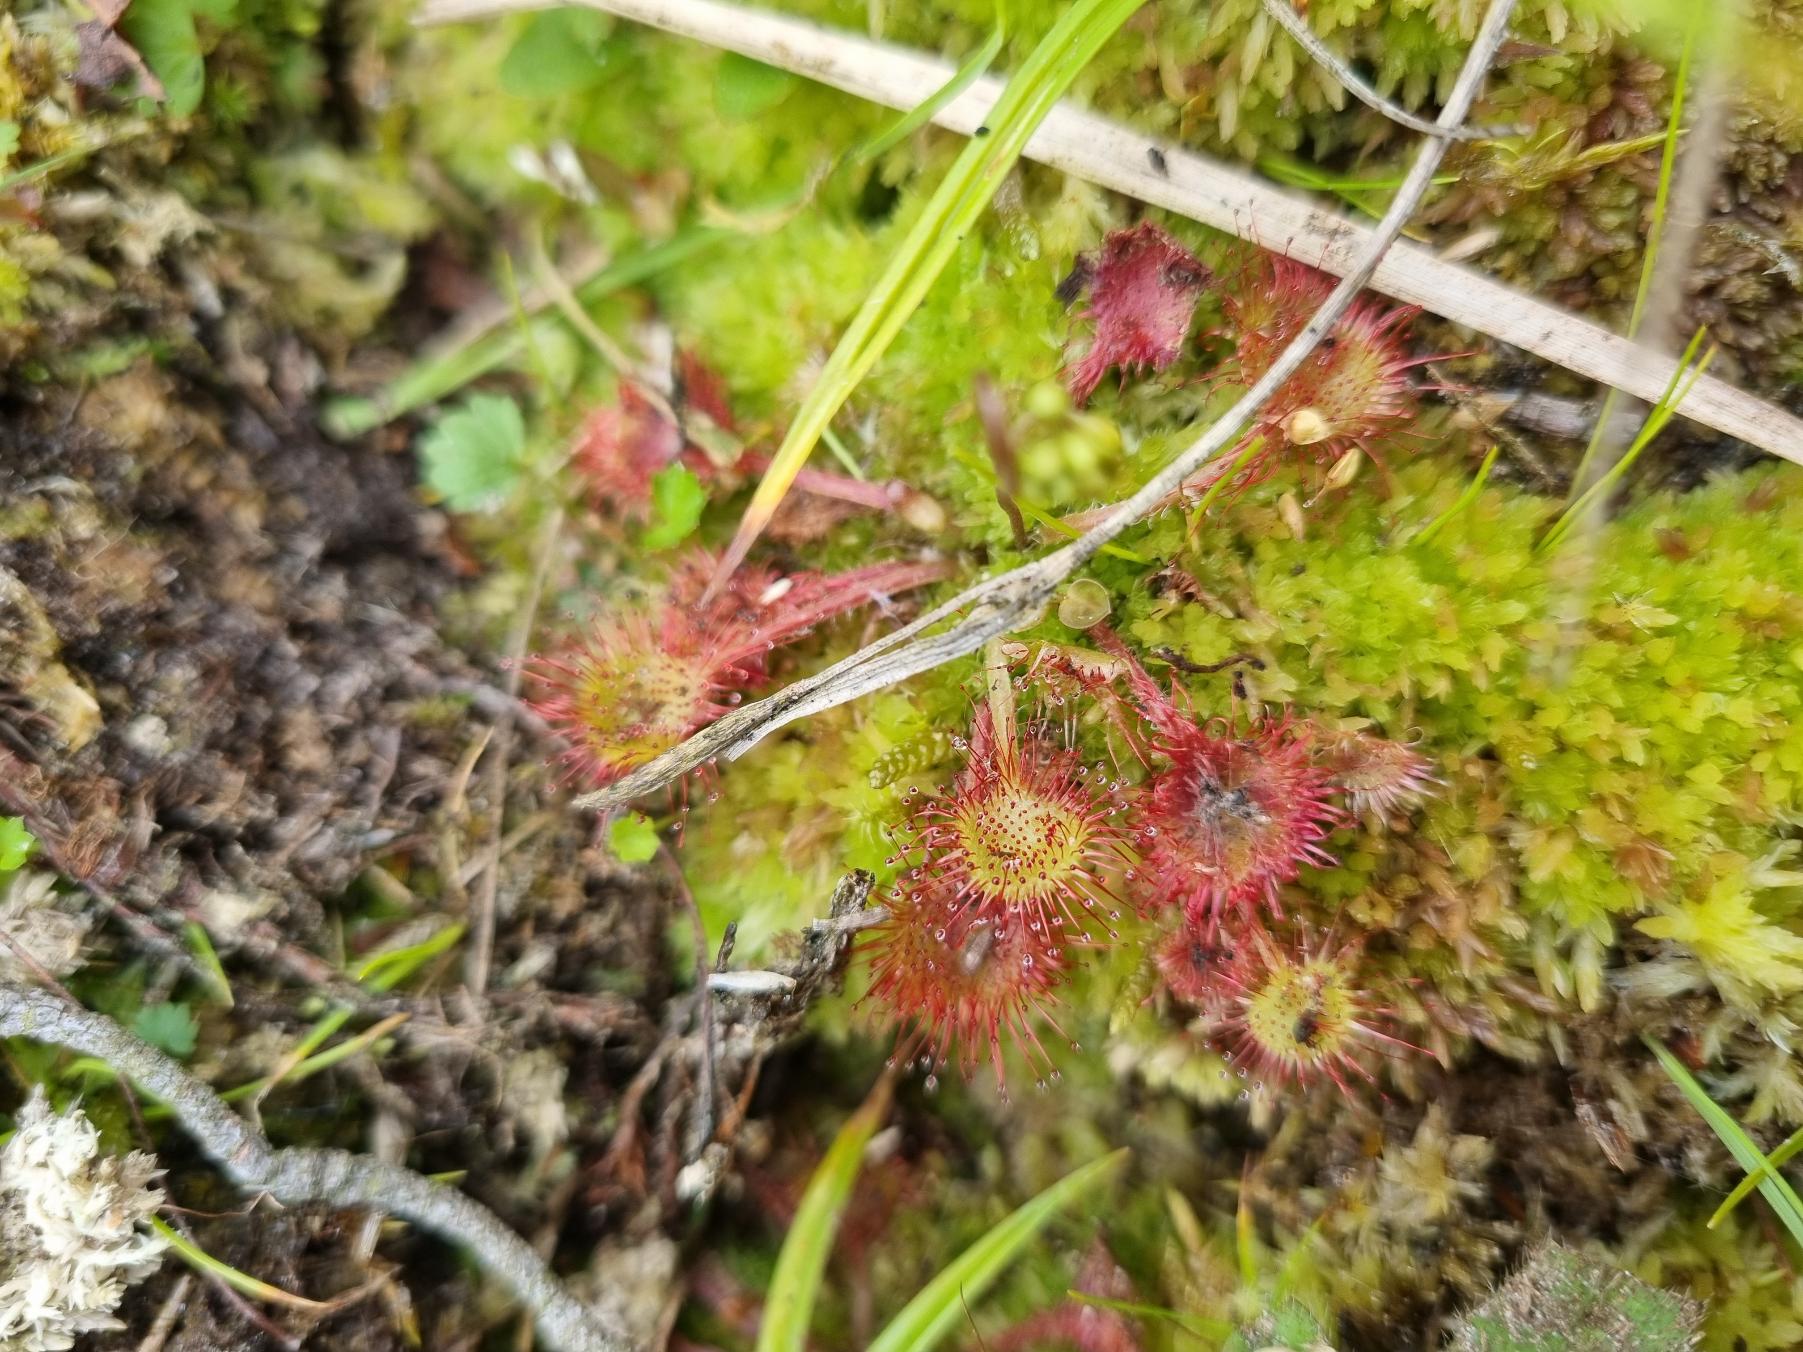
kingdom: Plantae
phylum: Tracheophyta
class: Magnoliopsida
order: Caryophyllales
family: Droseraceae
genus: Drosera
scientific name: Drosera rotundifolia
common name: Rundbladet soldug
